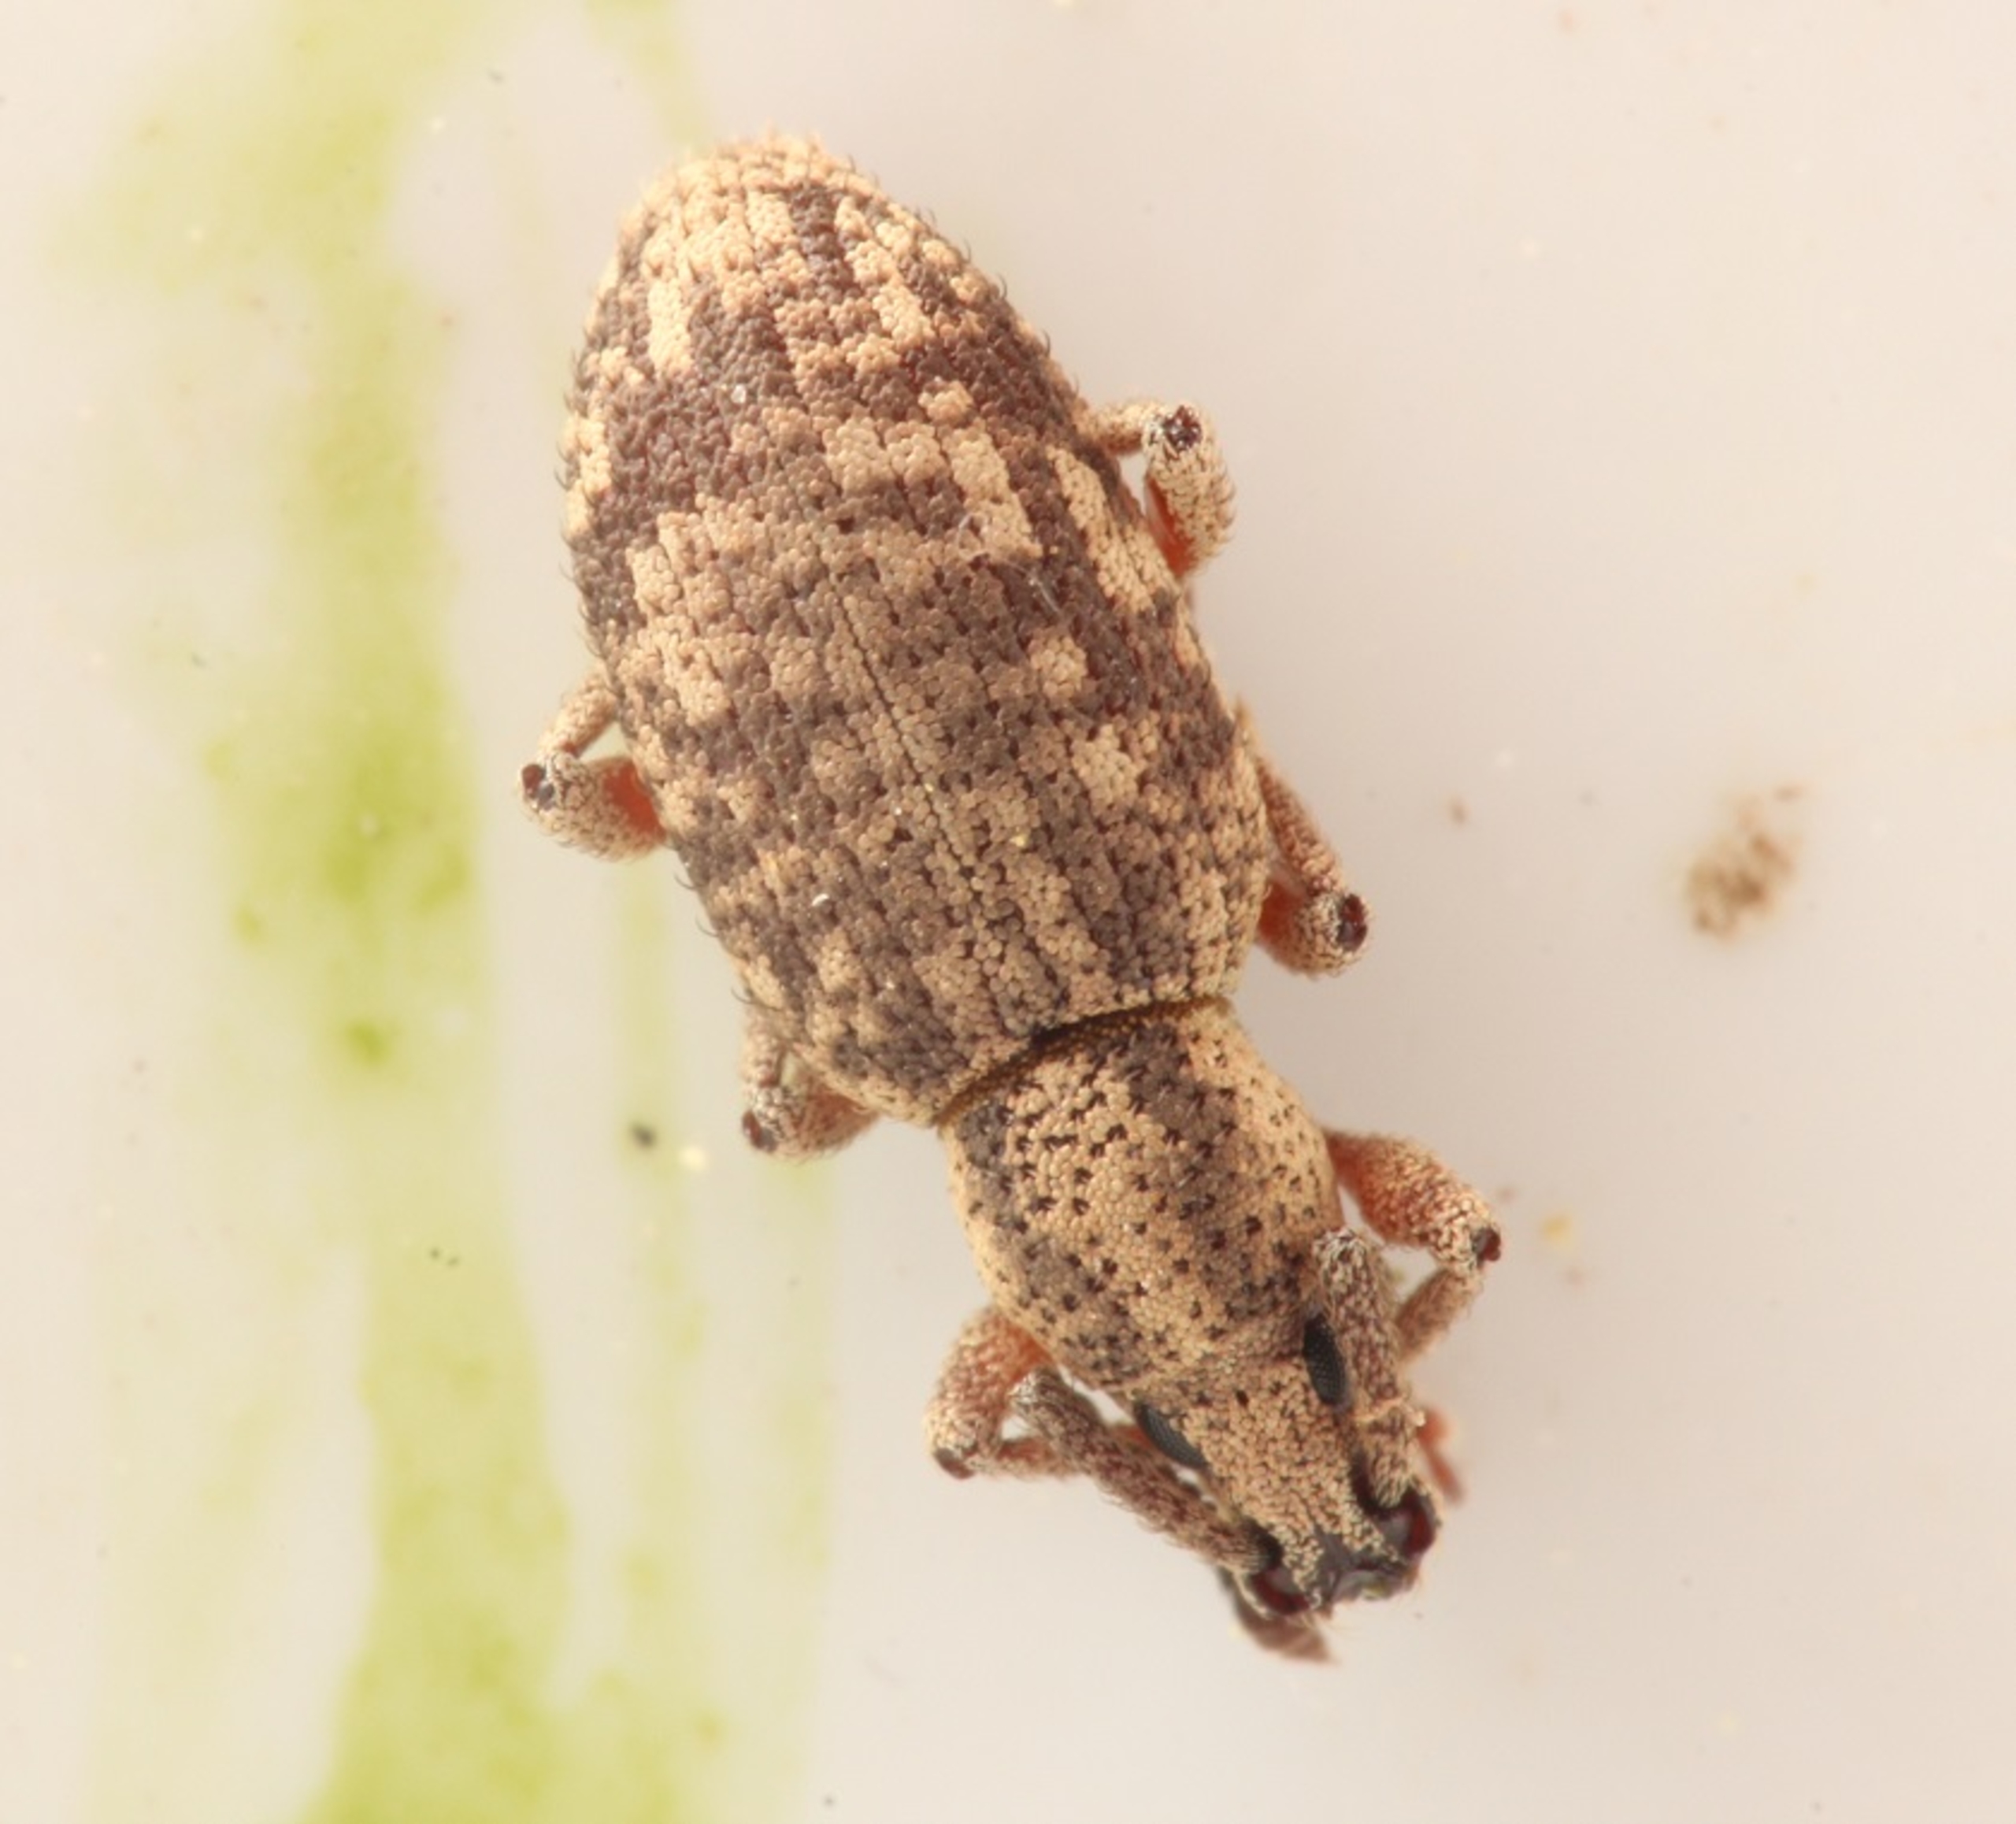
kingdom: Animalia
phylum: Arthropoda
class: Insecta
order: Coleoptera
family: Curculionidae
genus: Simo
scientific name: Simo hirticornis
